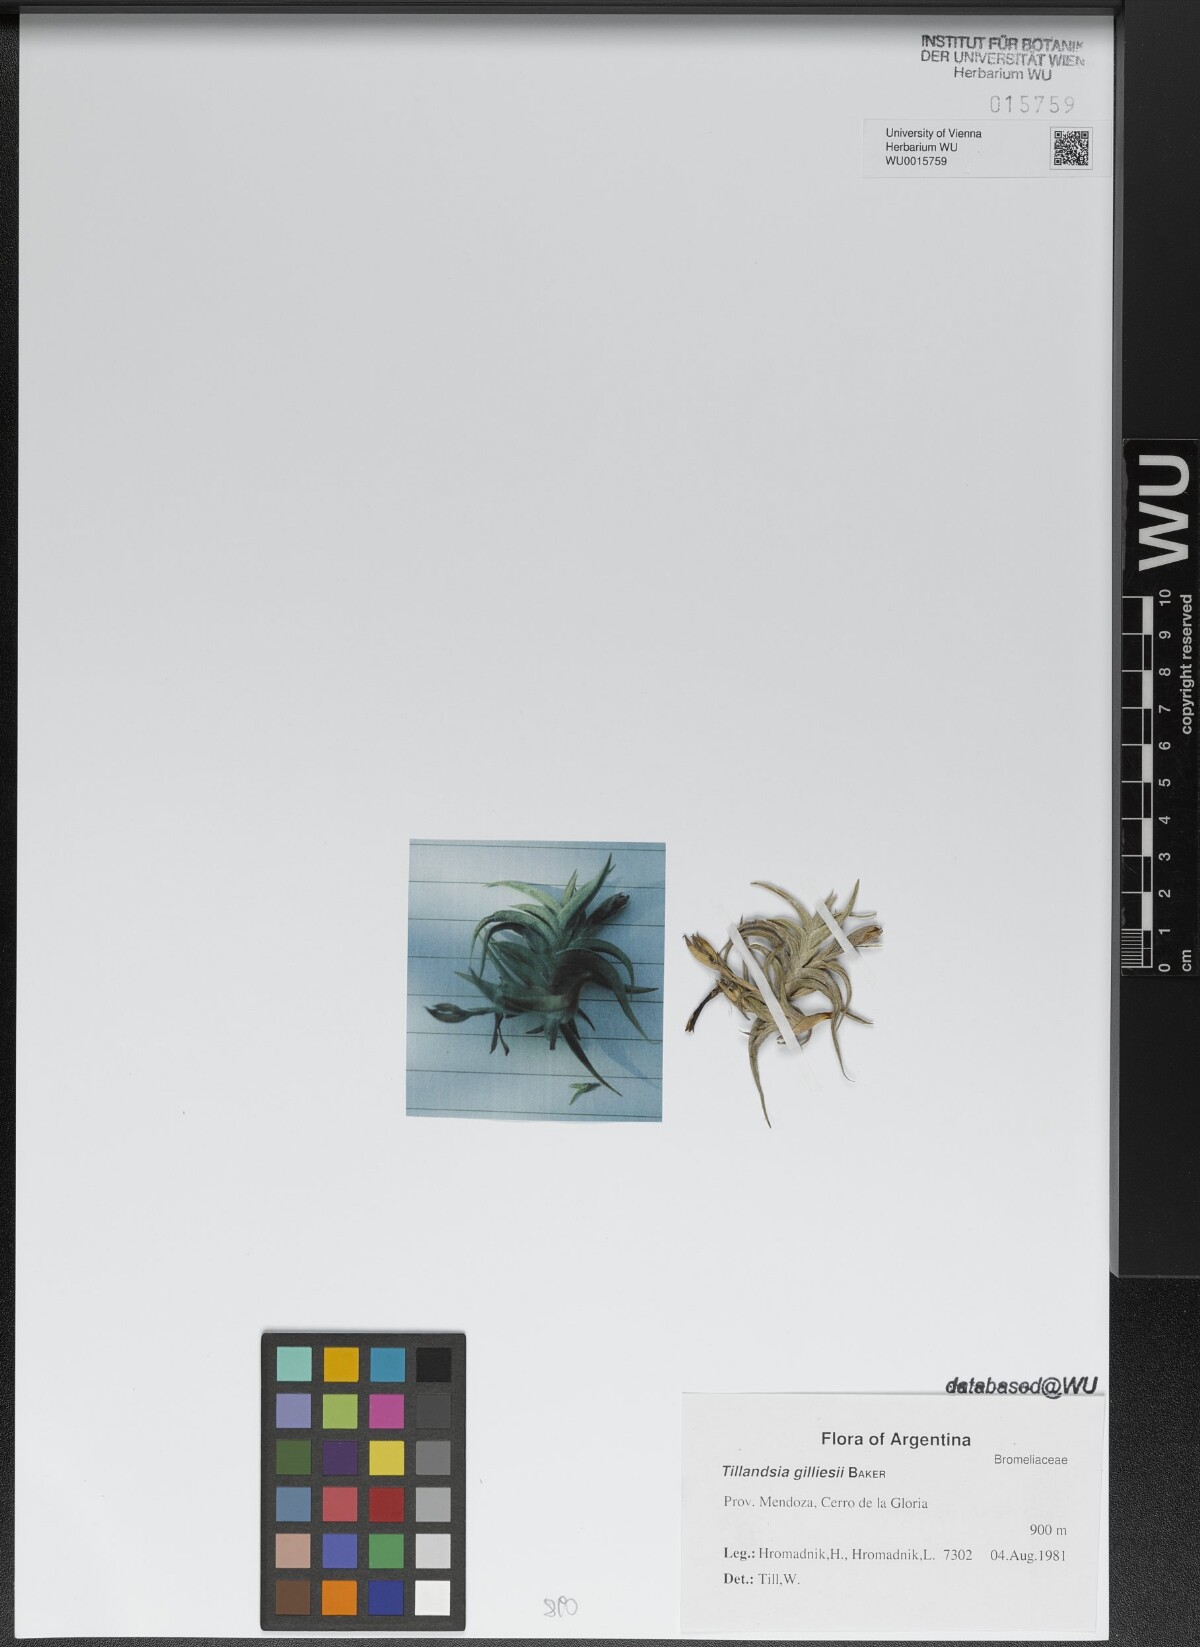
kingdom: Plantae
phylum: Tracheophyta
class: Liliopsida
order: Poales
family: Bromeliaceae
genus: Tillandsia
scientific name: Tillandsia gilliesii
